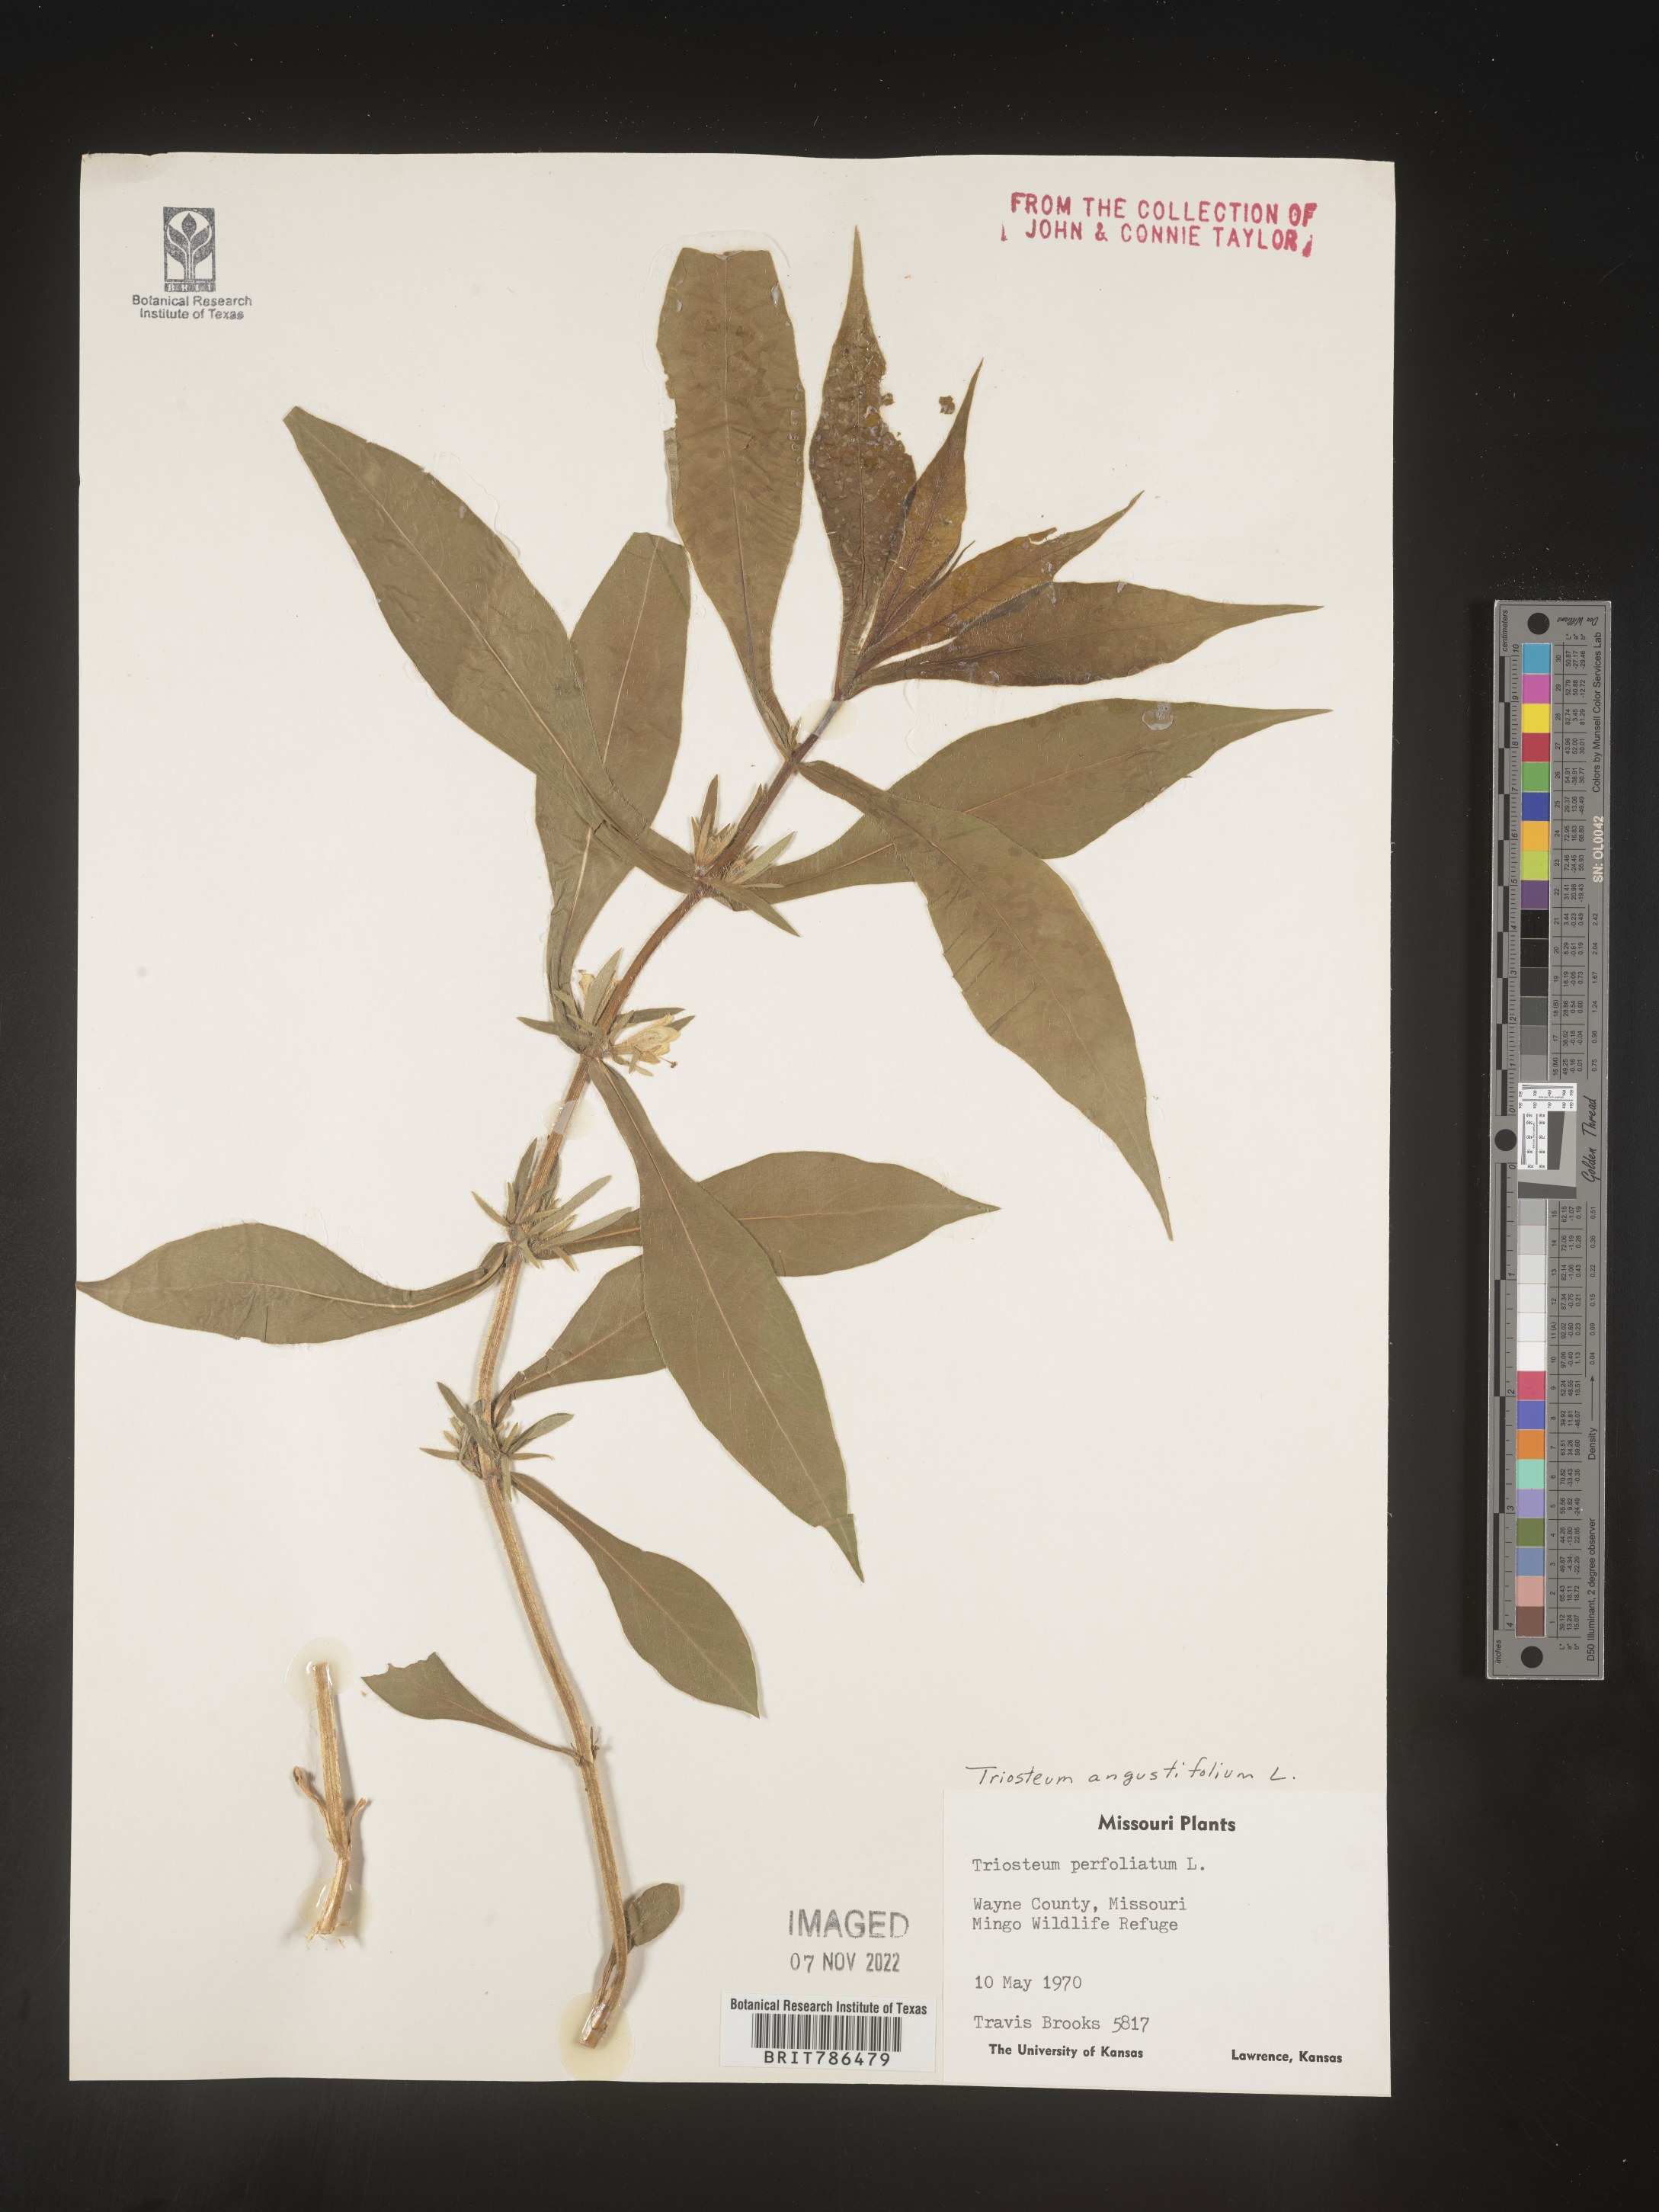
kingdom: Plantae
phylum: Tracheophyta
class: Magnoliopsida
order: Dipsacales
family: Caprifoliaceae
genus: Triosteum
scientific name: Triosteum angustifolium
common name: Narrow-leaved horse-gentian
